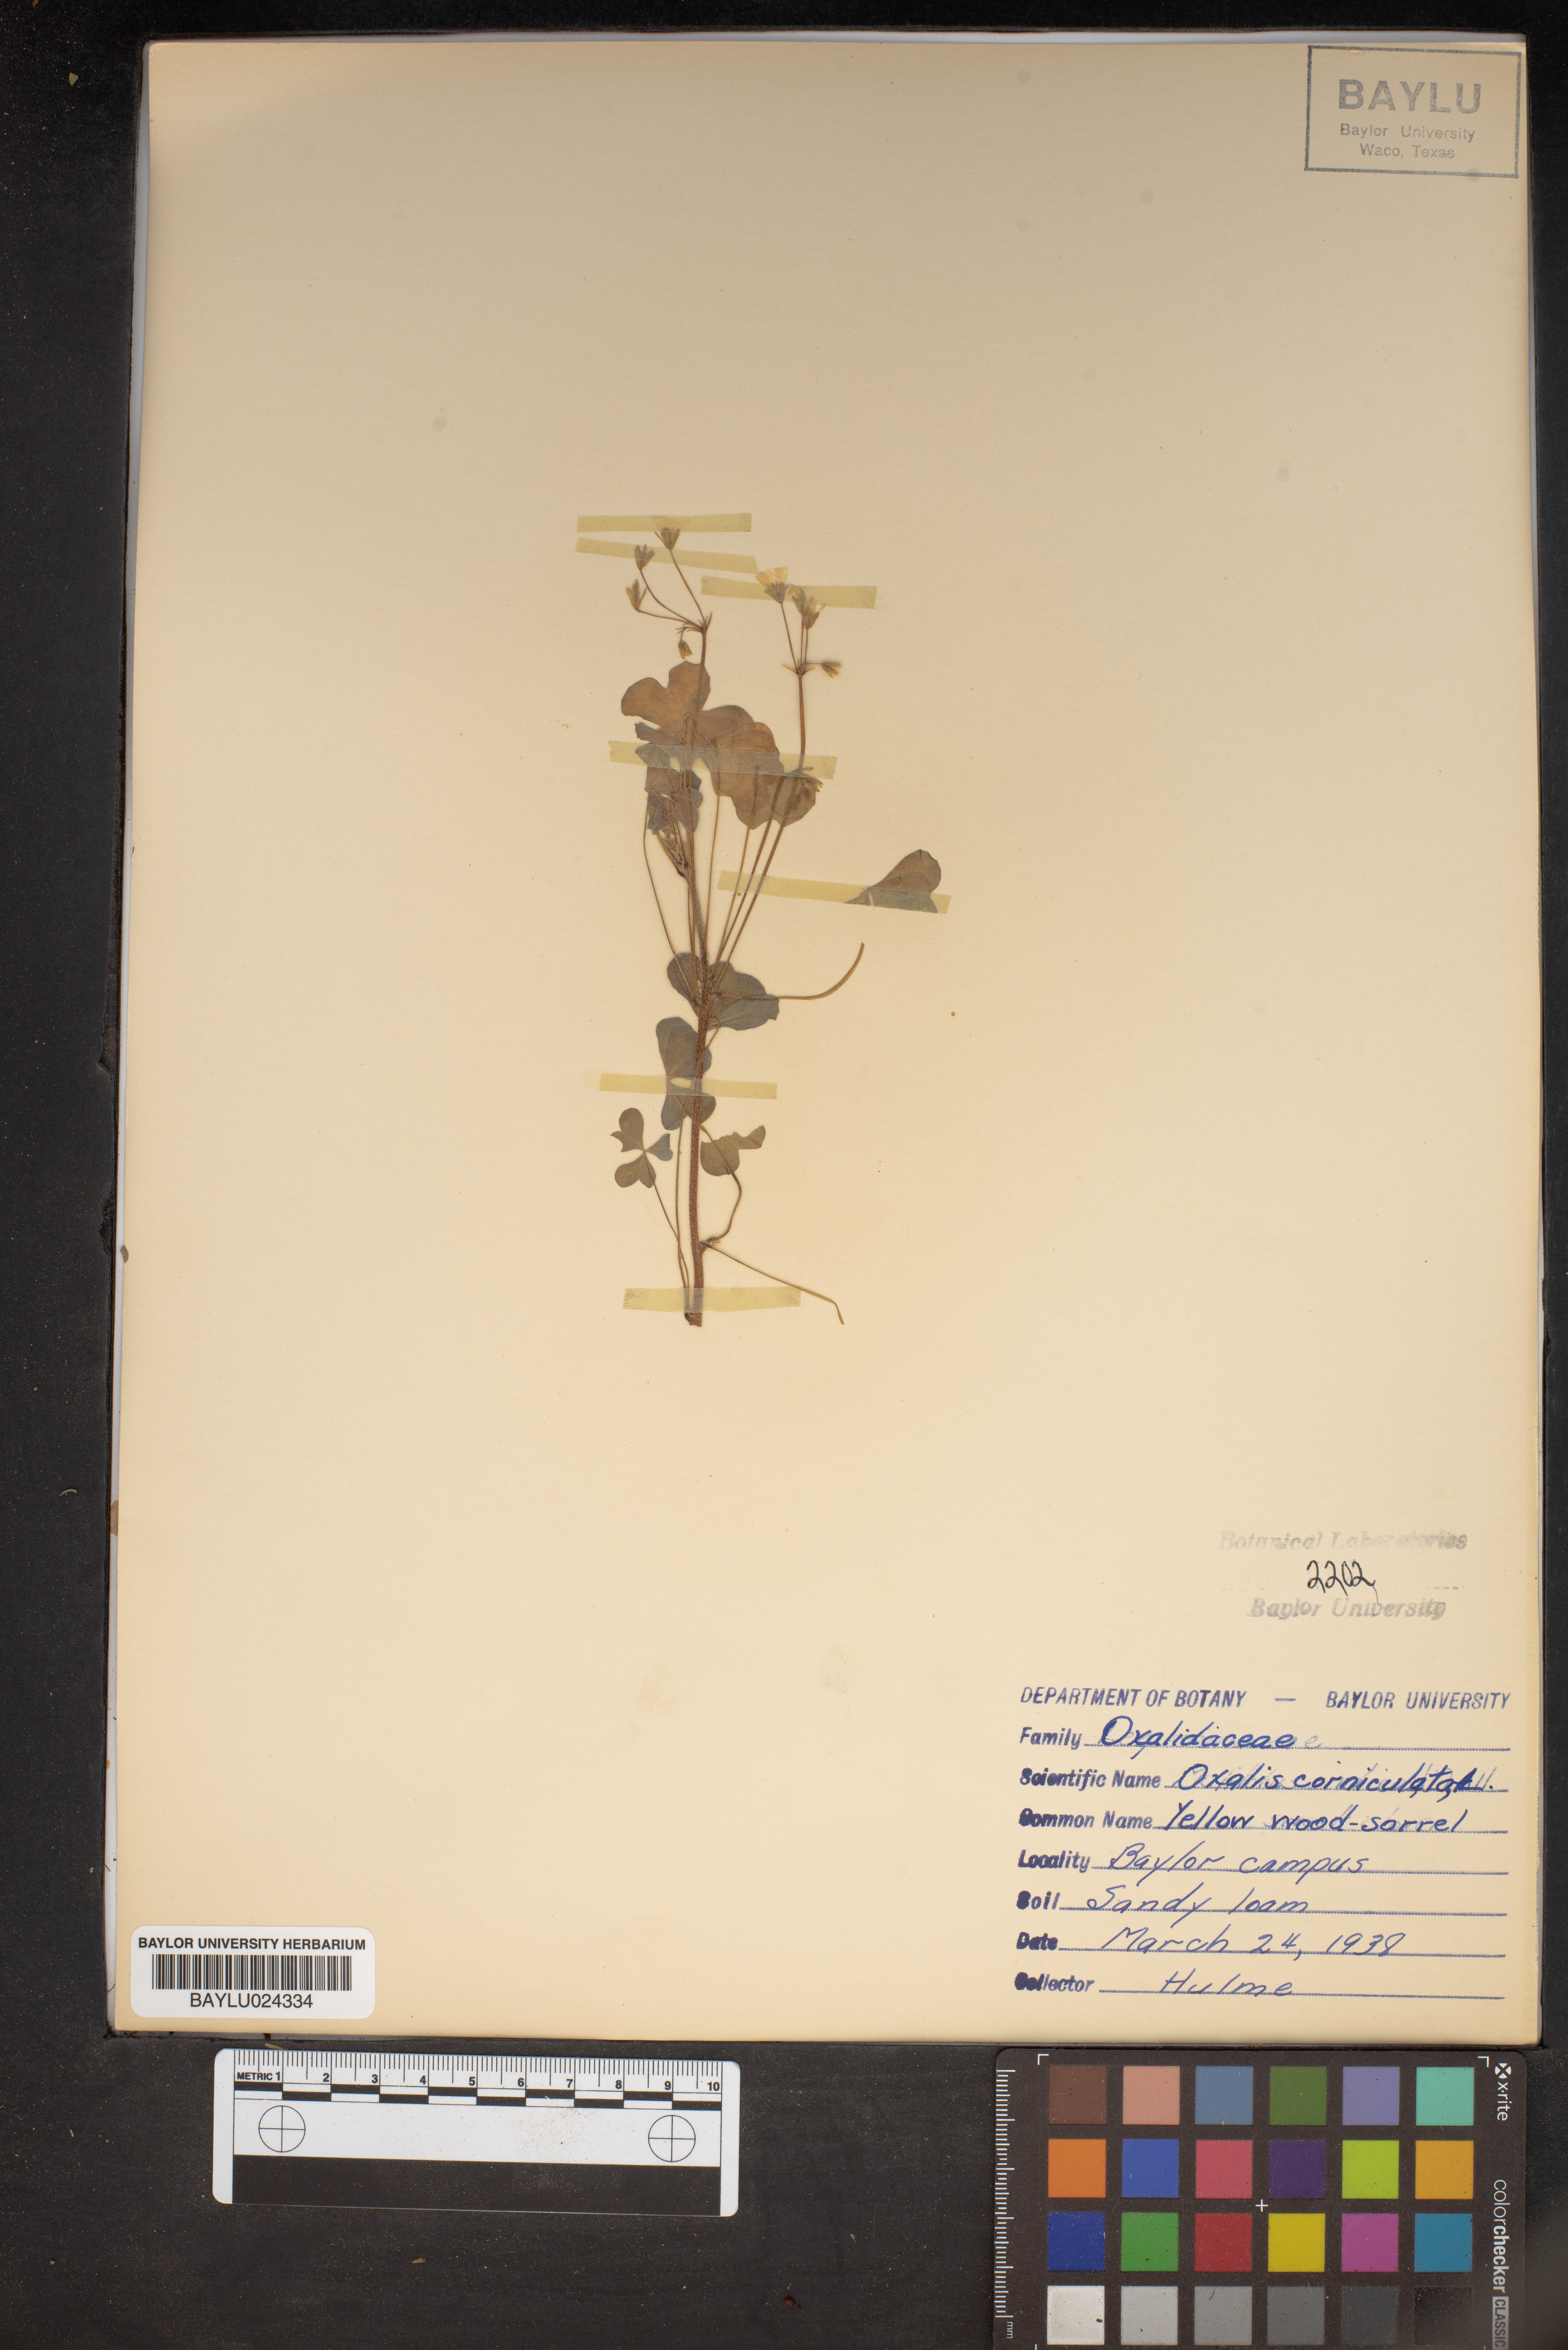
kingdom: Plantae
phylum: Tracheophyta
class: Magnoliopsida
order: Oxalidales
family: Oxalidaceae
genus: Oxalis
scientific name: Oxalis corniculata
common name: Procumbent yellow-sorrel
